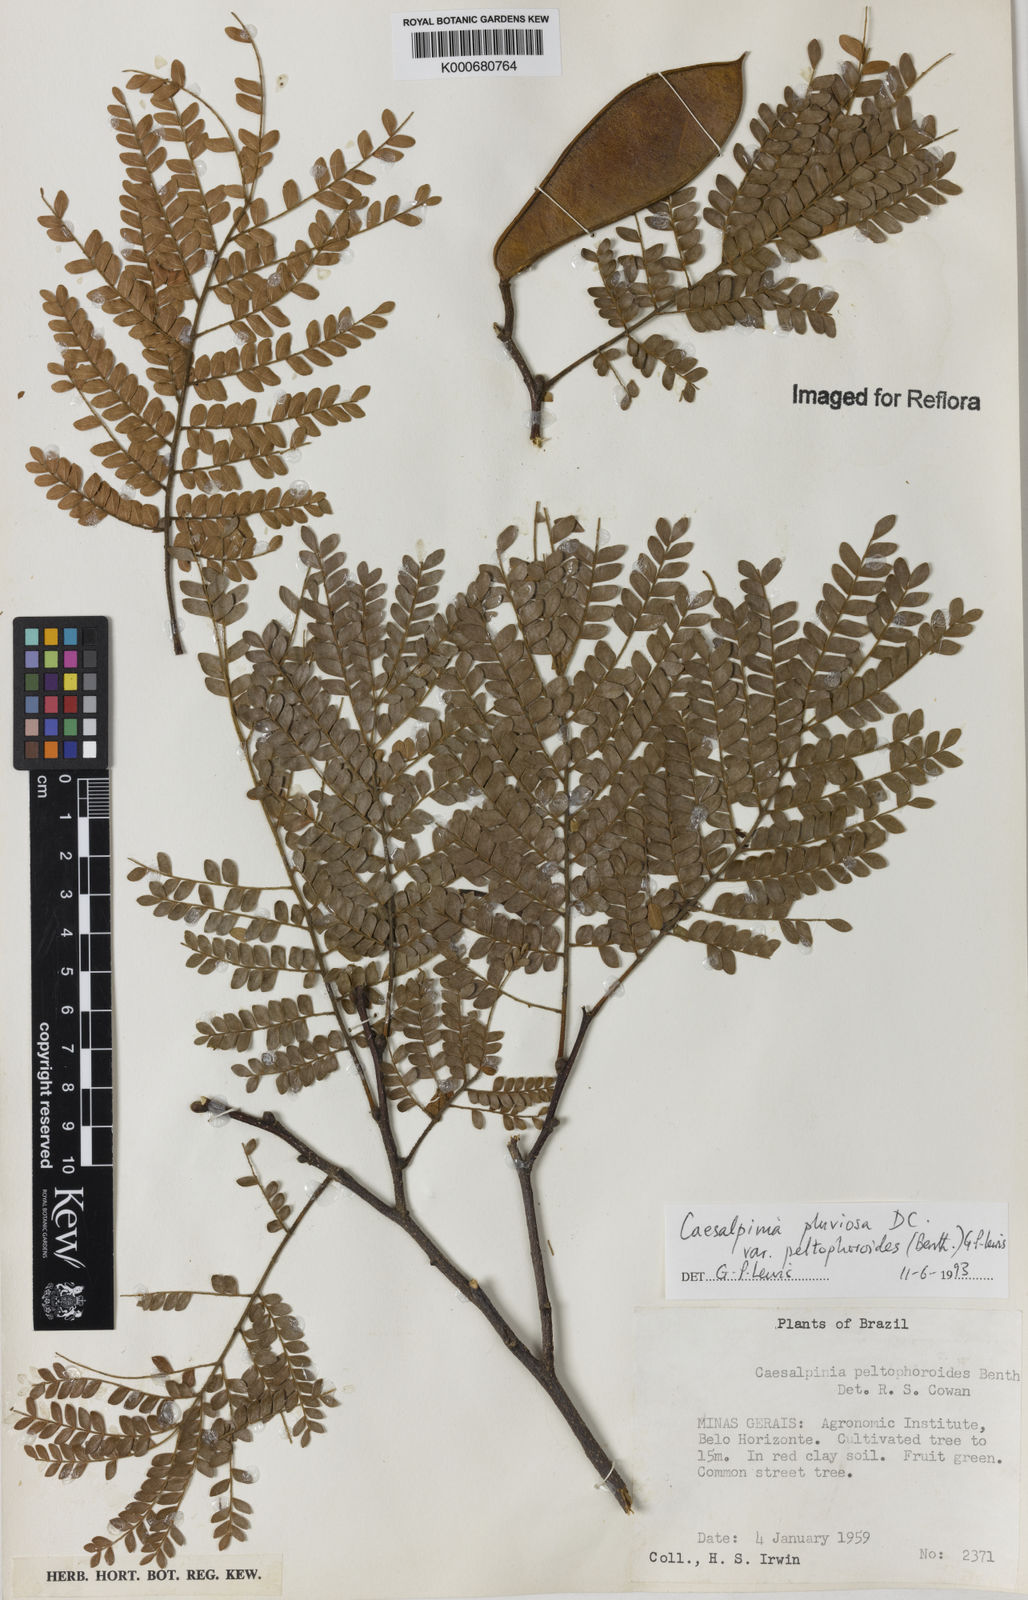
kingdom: Plantae
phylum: Tracheophyta
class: Magnoliopsida
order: Fabales
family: Fabaceae
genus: Cenostigma
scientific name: Cenostigma pluviosum
